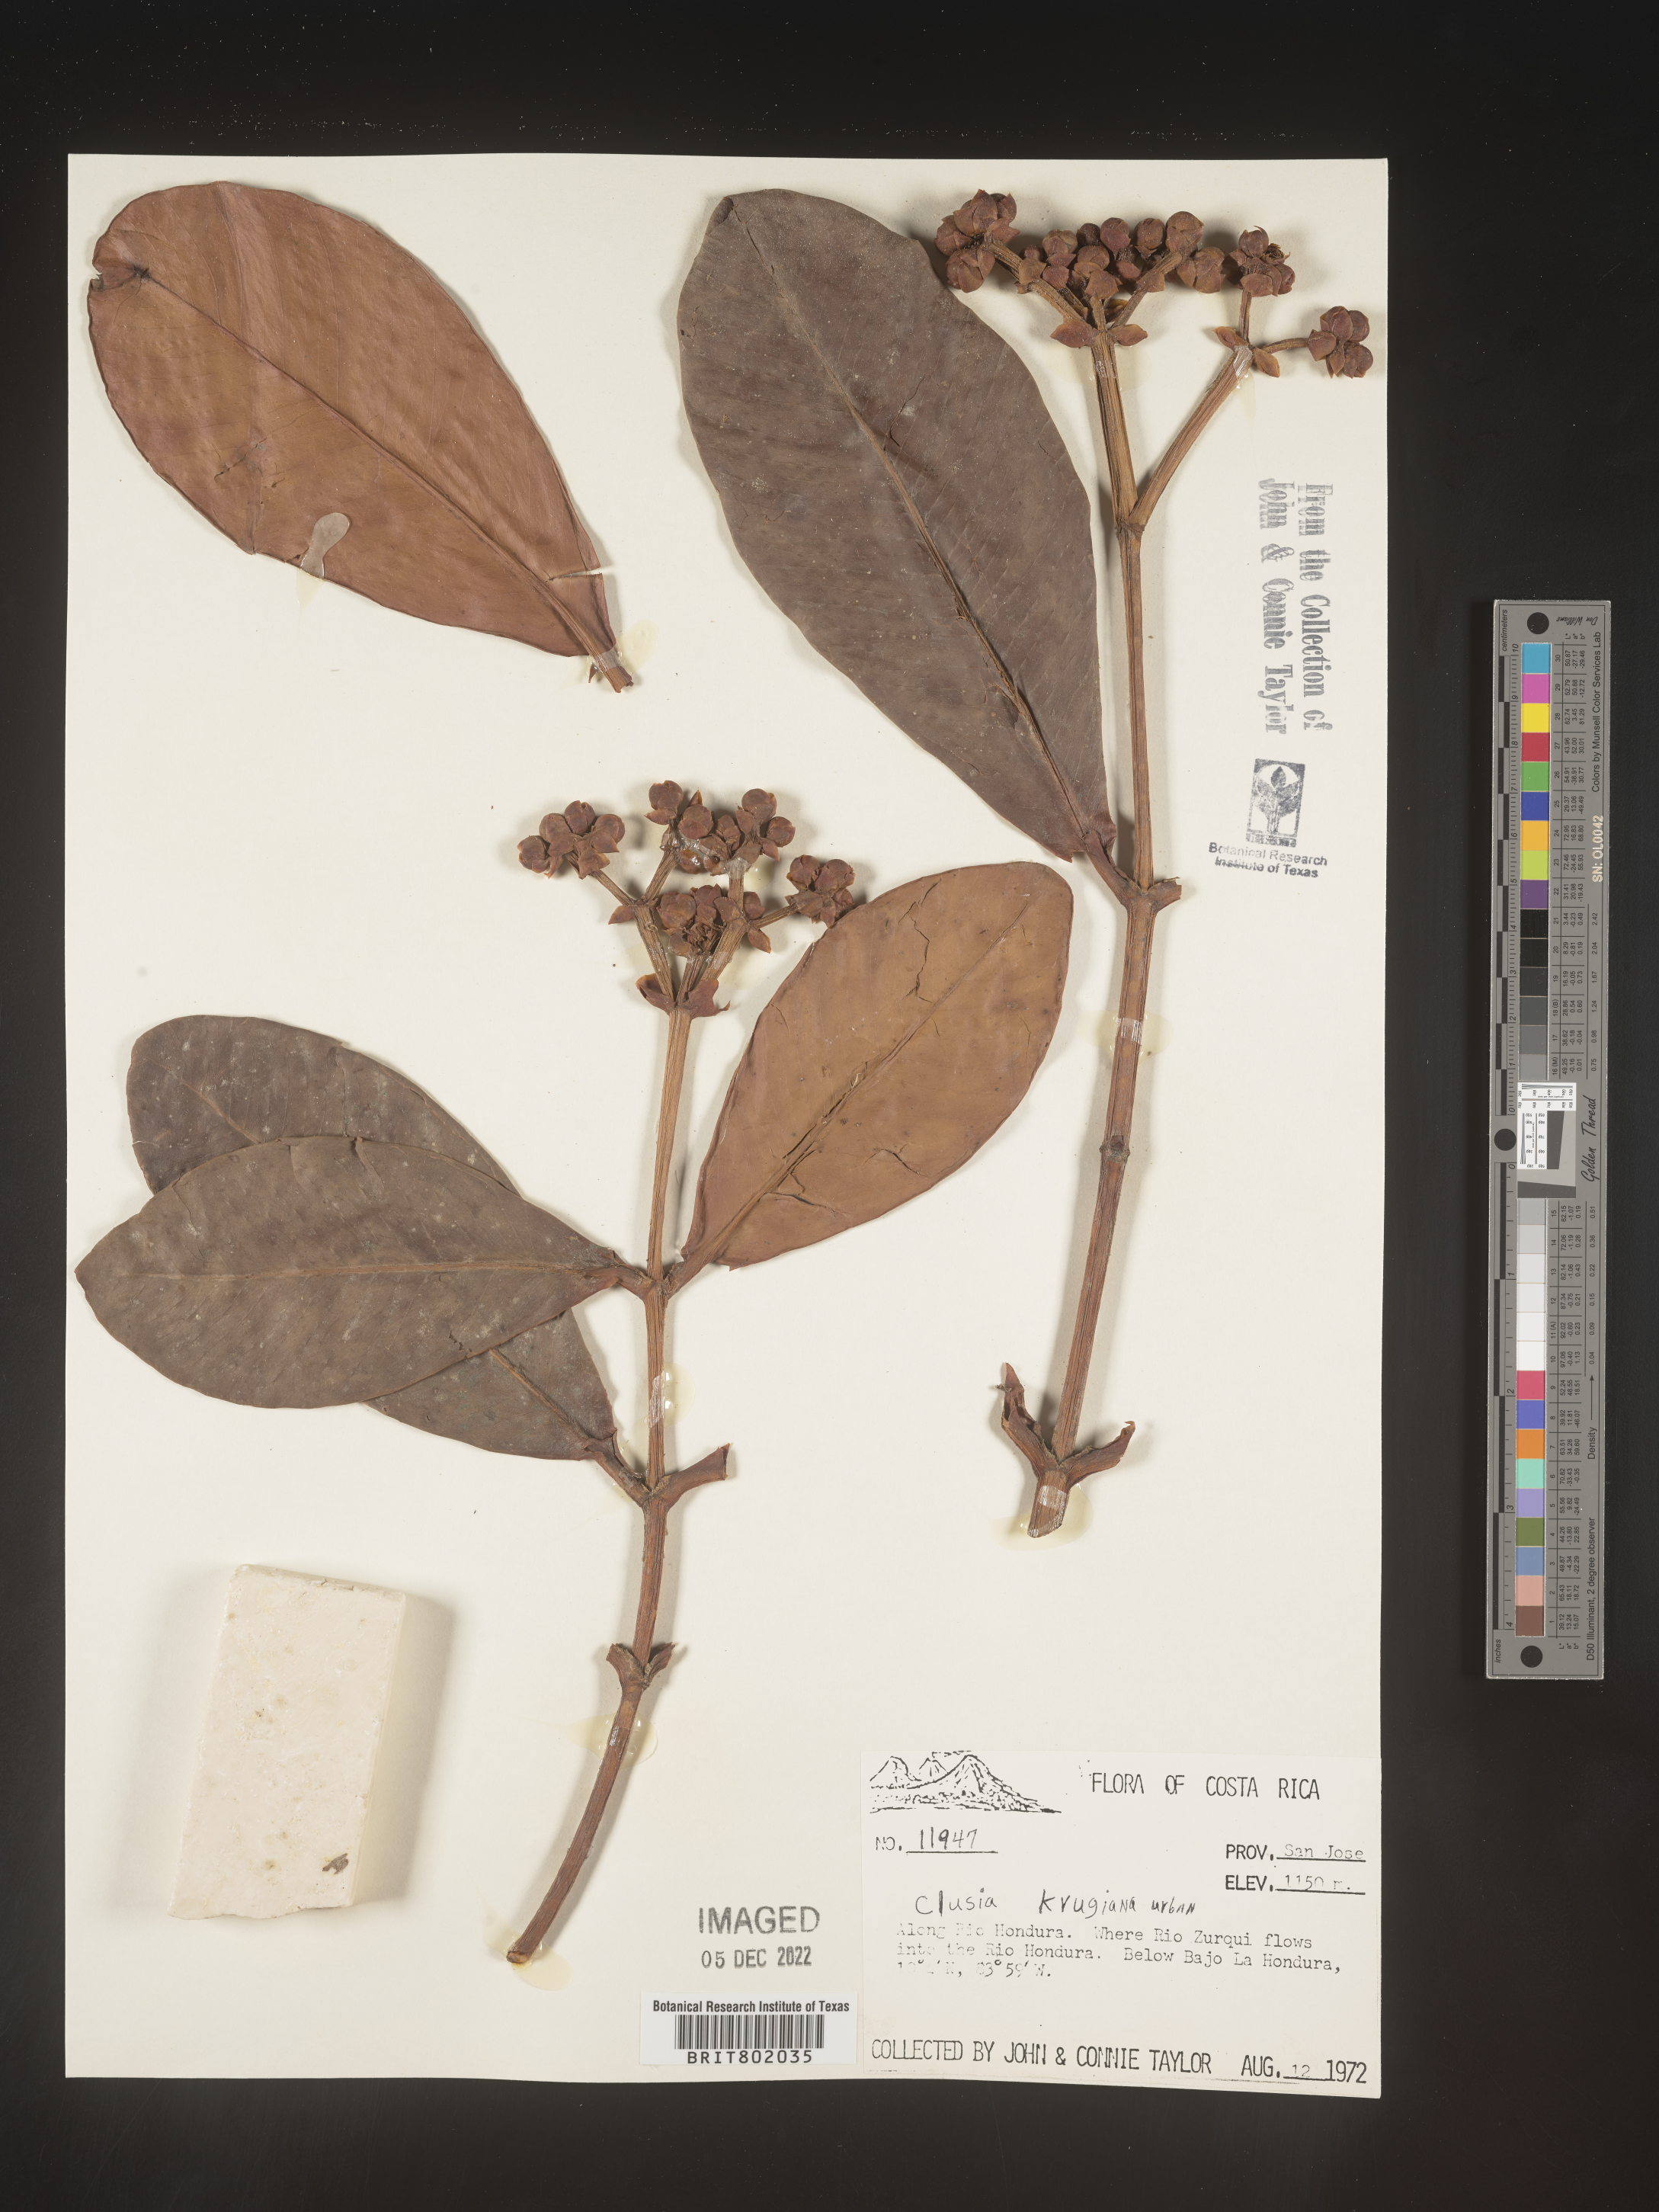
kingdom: Plantae
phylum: Tracheophyta
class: Magnoliopsida
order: Malpighiales
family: Clusiaceae
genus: Clusia
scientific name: Clusia
